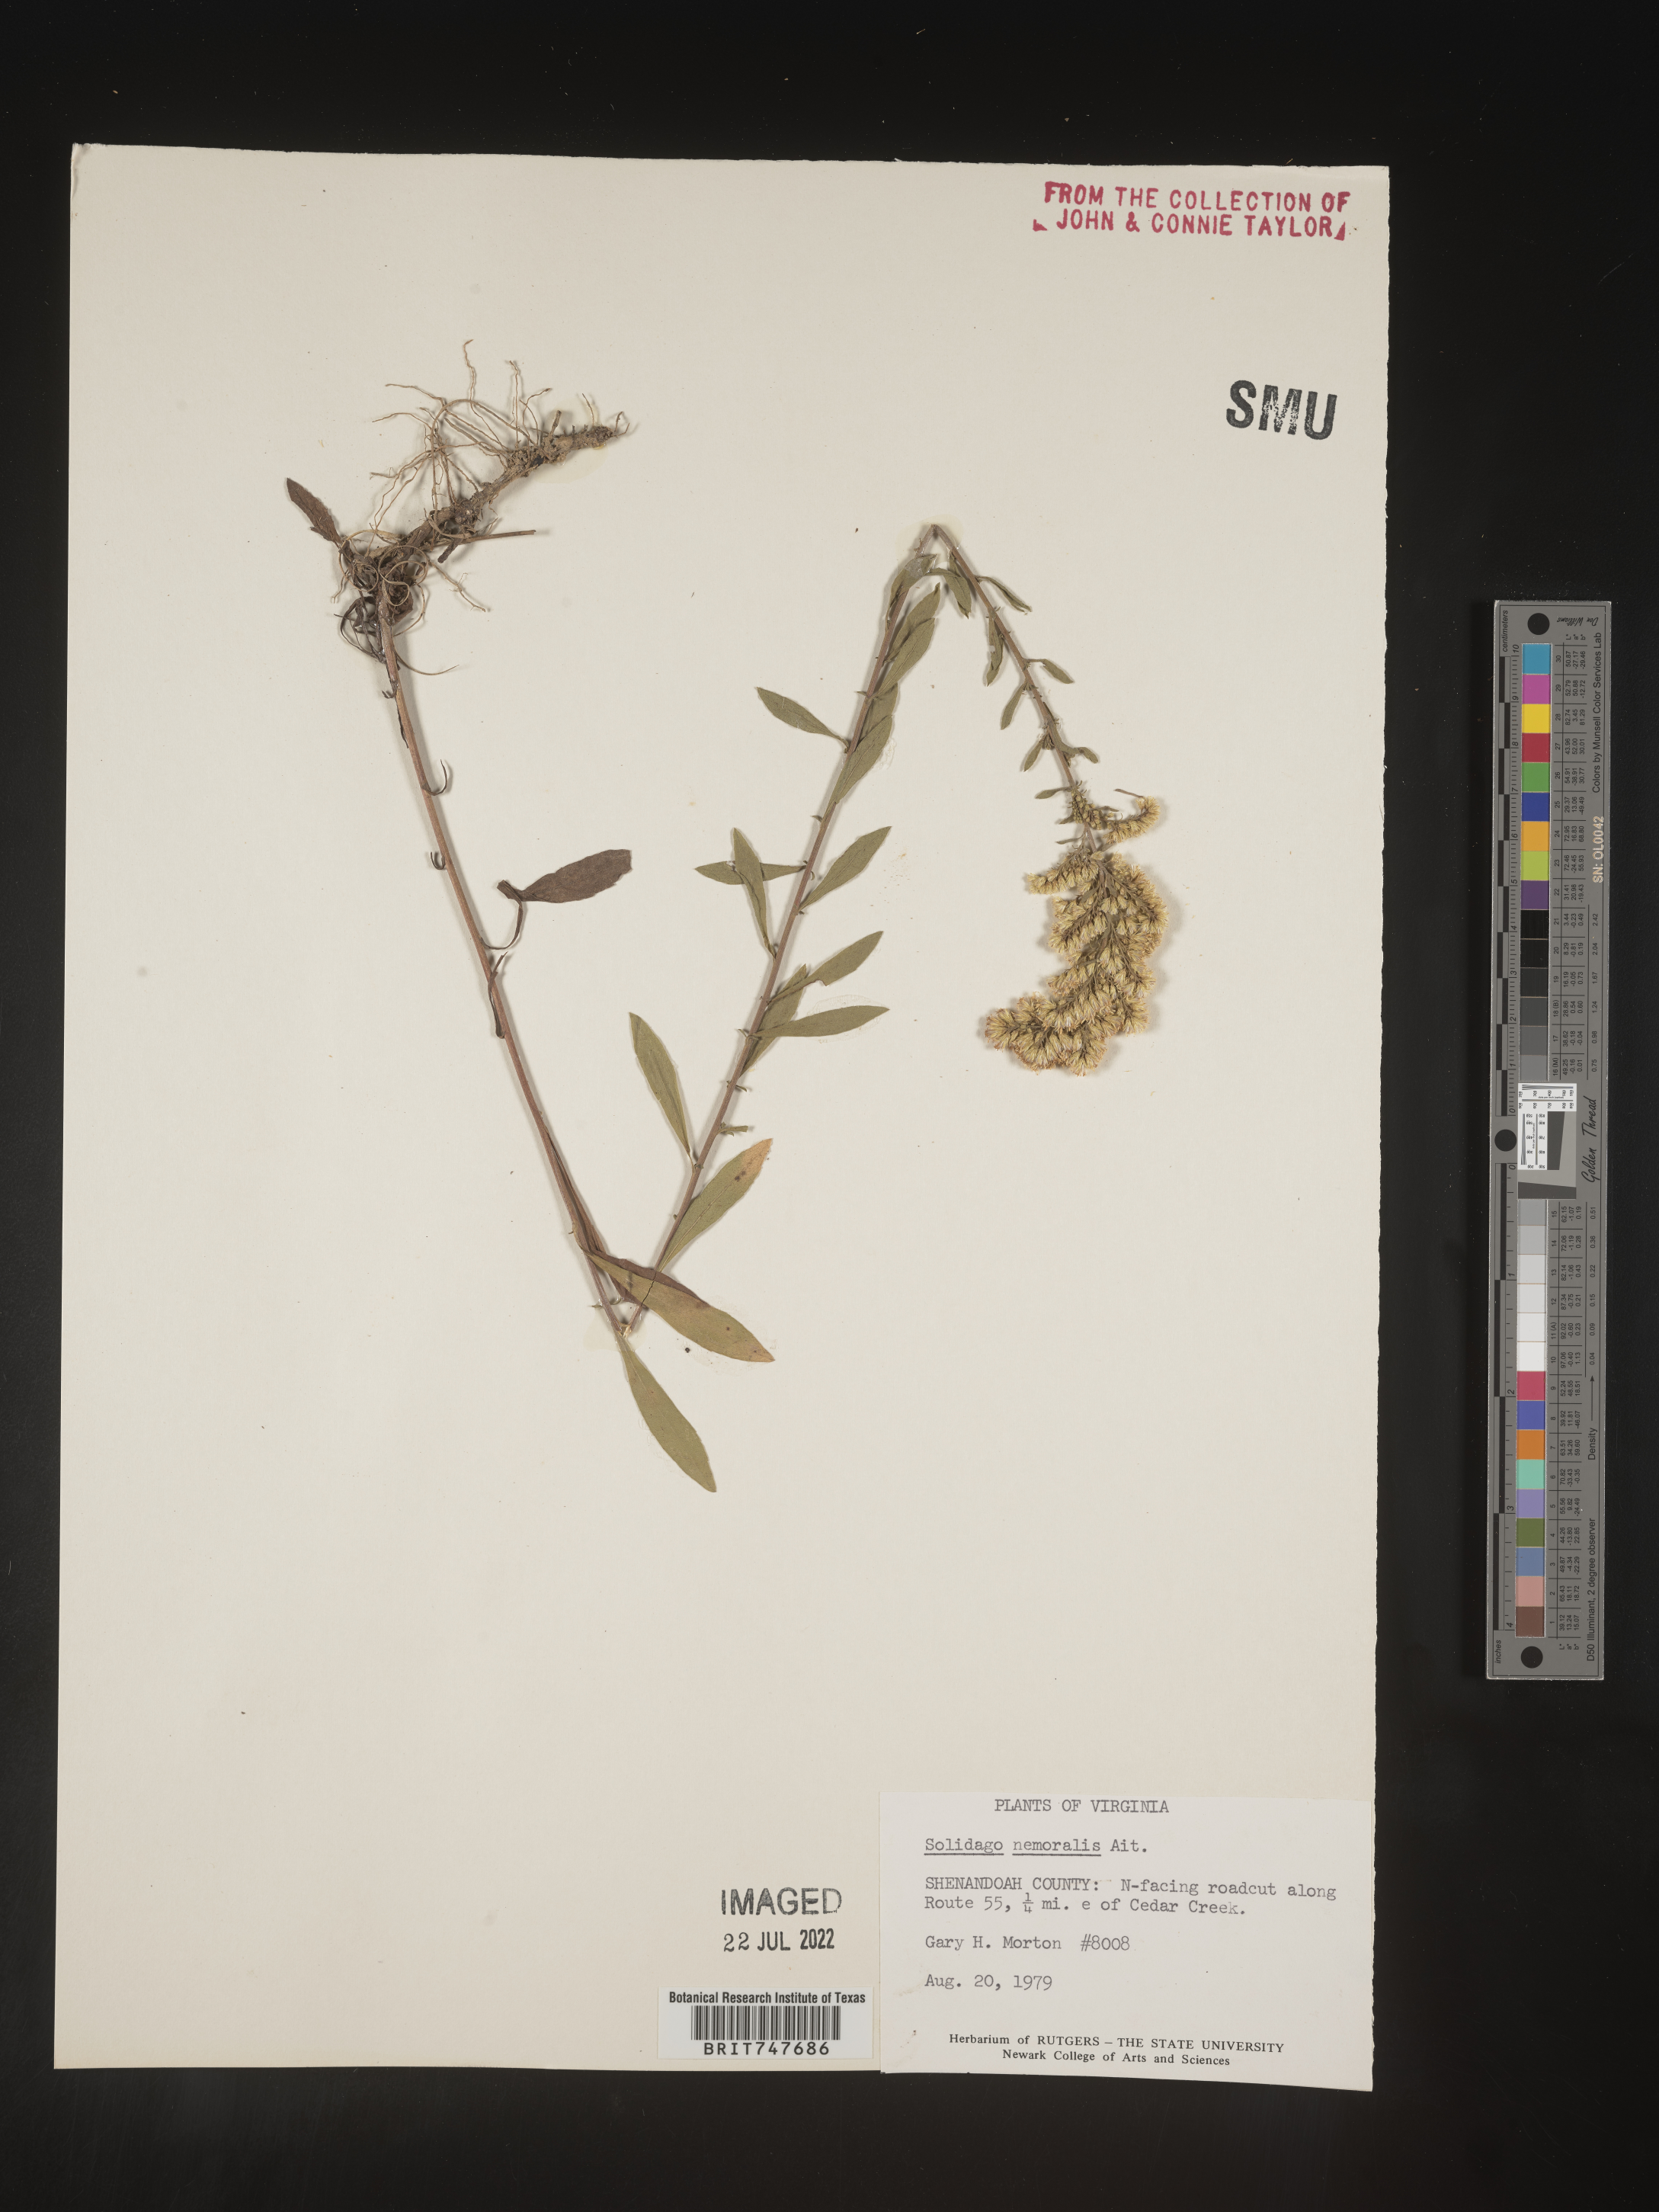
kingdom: Plantae
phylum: Tracheophyta
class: Magnoliopsida
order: Asterales
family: Asteraceae
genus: Solidago
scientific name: Solidago nemoralis
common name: Grey goldenrod
